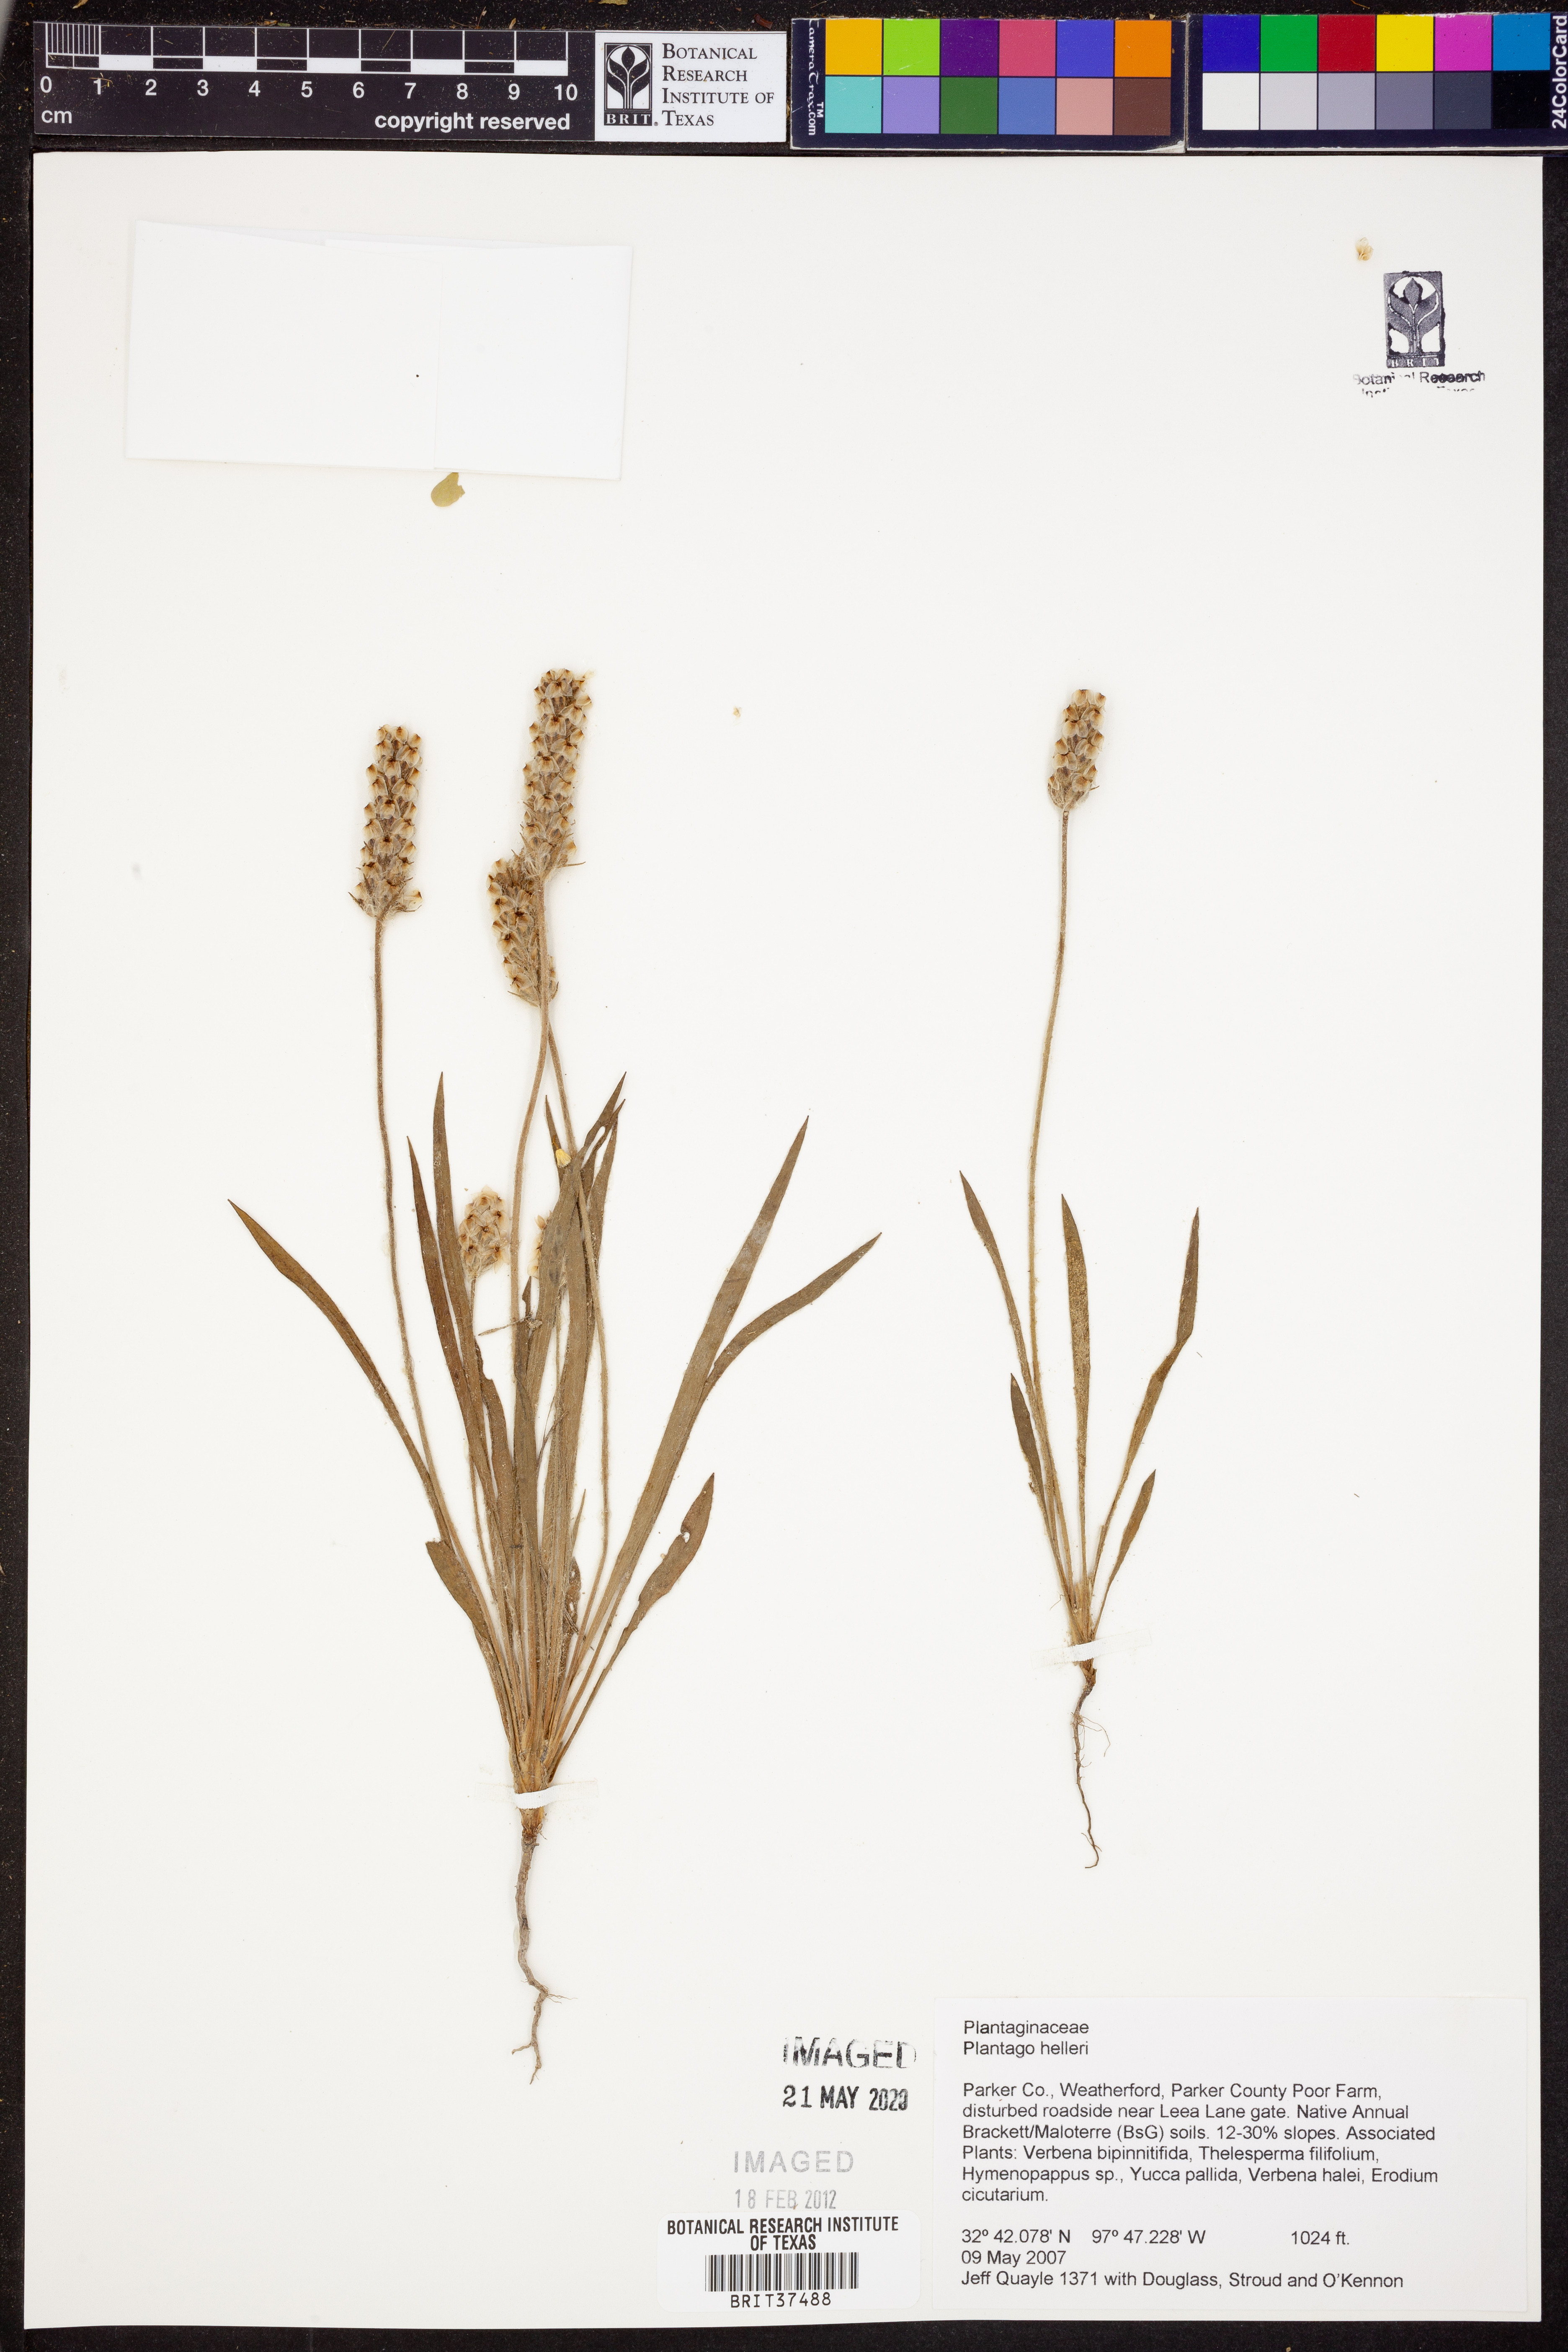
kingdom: Plantae
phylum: Tracheophyta
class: Magnoliopsida
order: Lamiales
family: Plantaginaceae
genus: Plantago
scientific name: Plantago helleri
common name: Heller's plantain
